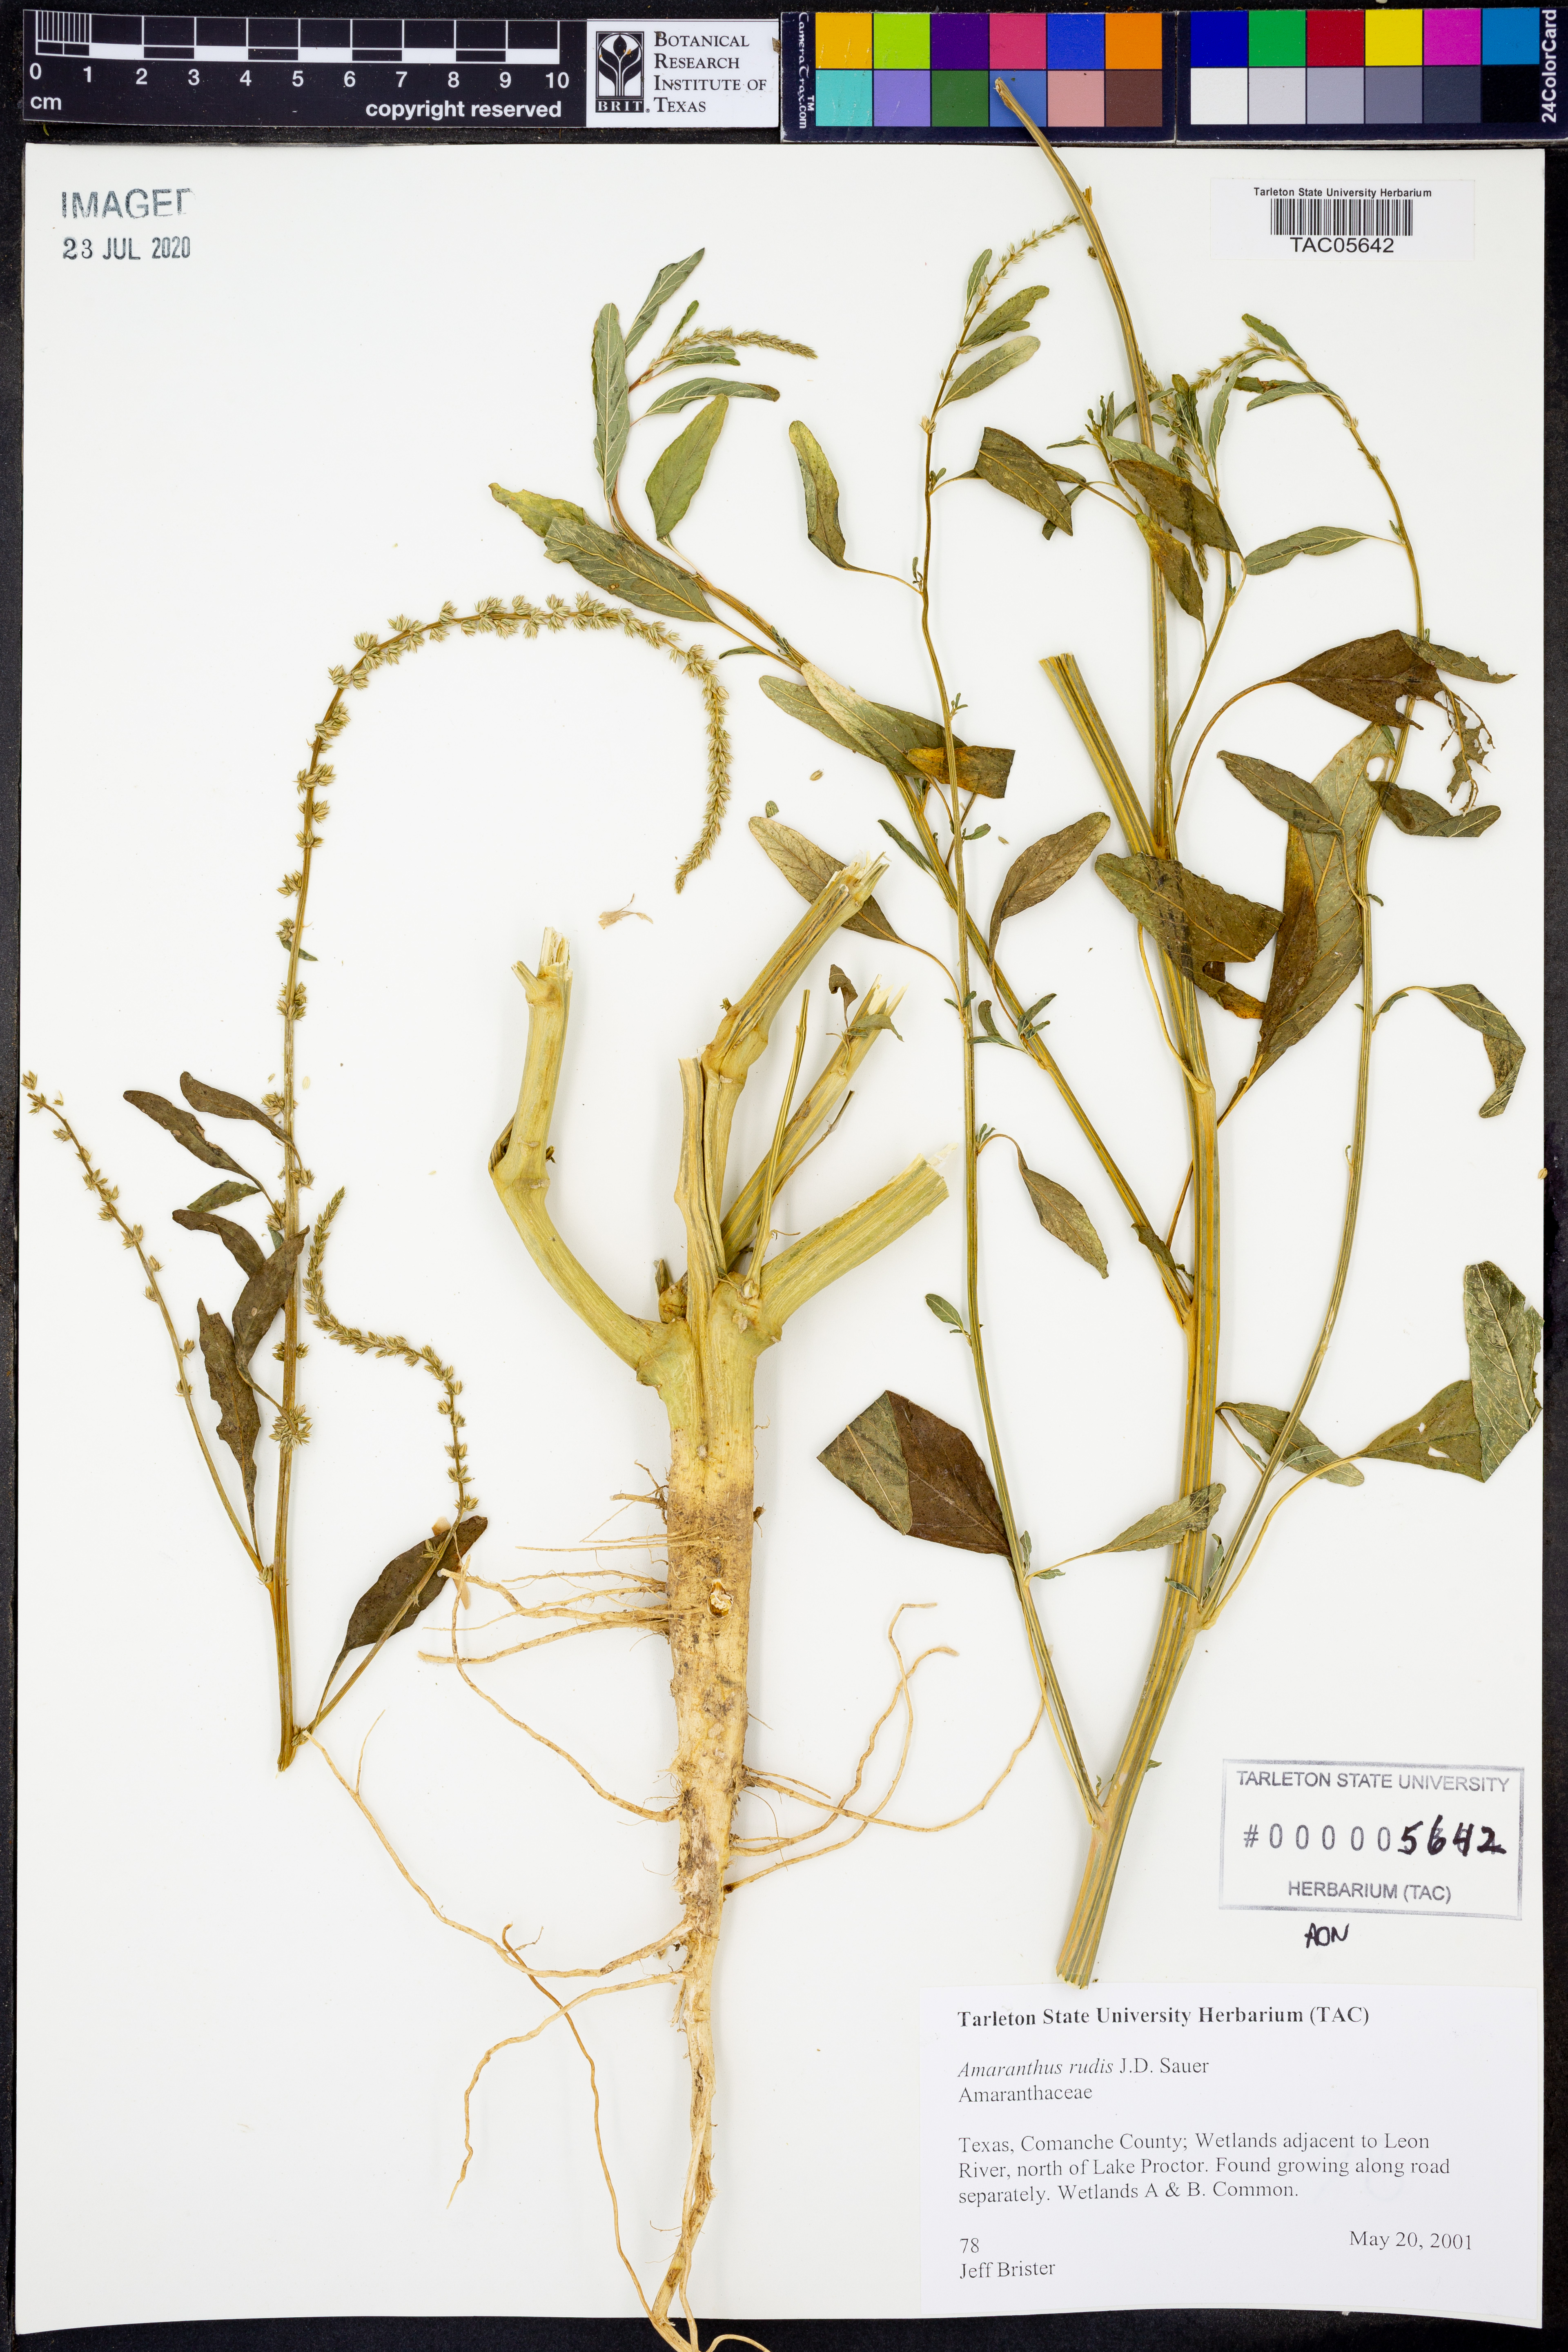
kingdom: Plantae
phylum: Tracheophyta
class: Magnoliopsida
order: Caryophyllales
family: Amaranthaceae
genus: Amaranthus
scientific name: Amaranthus tuberculatus
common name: Rough-fruit amaranth
